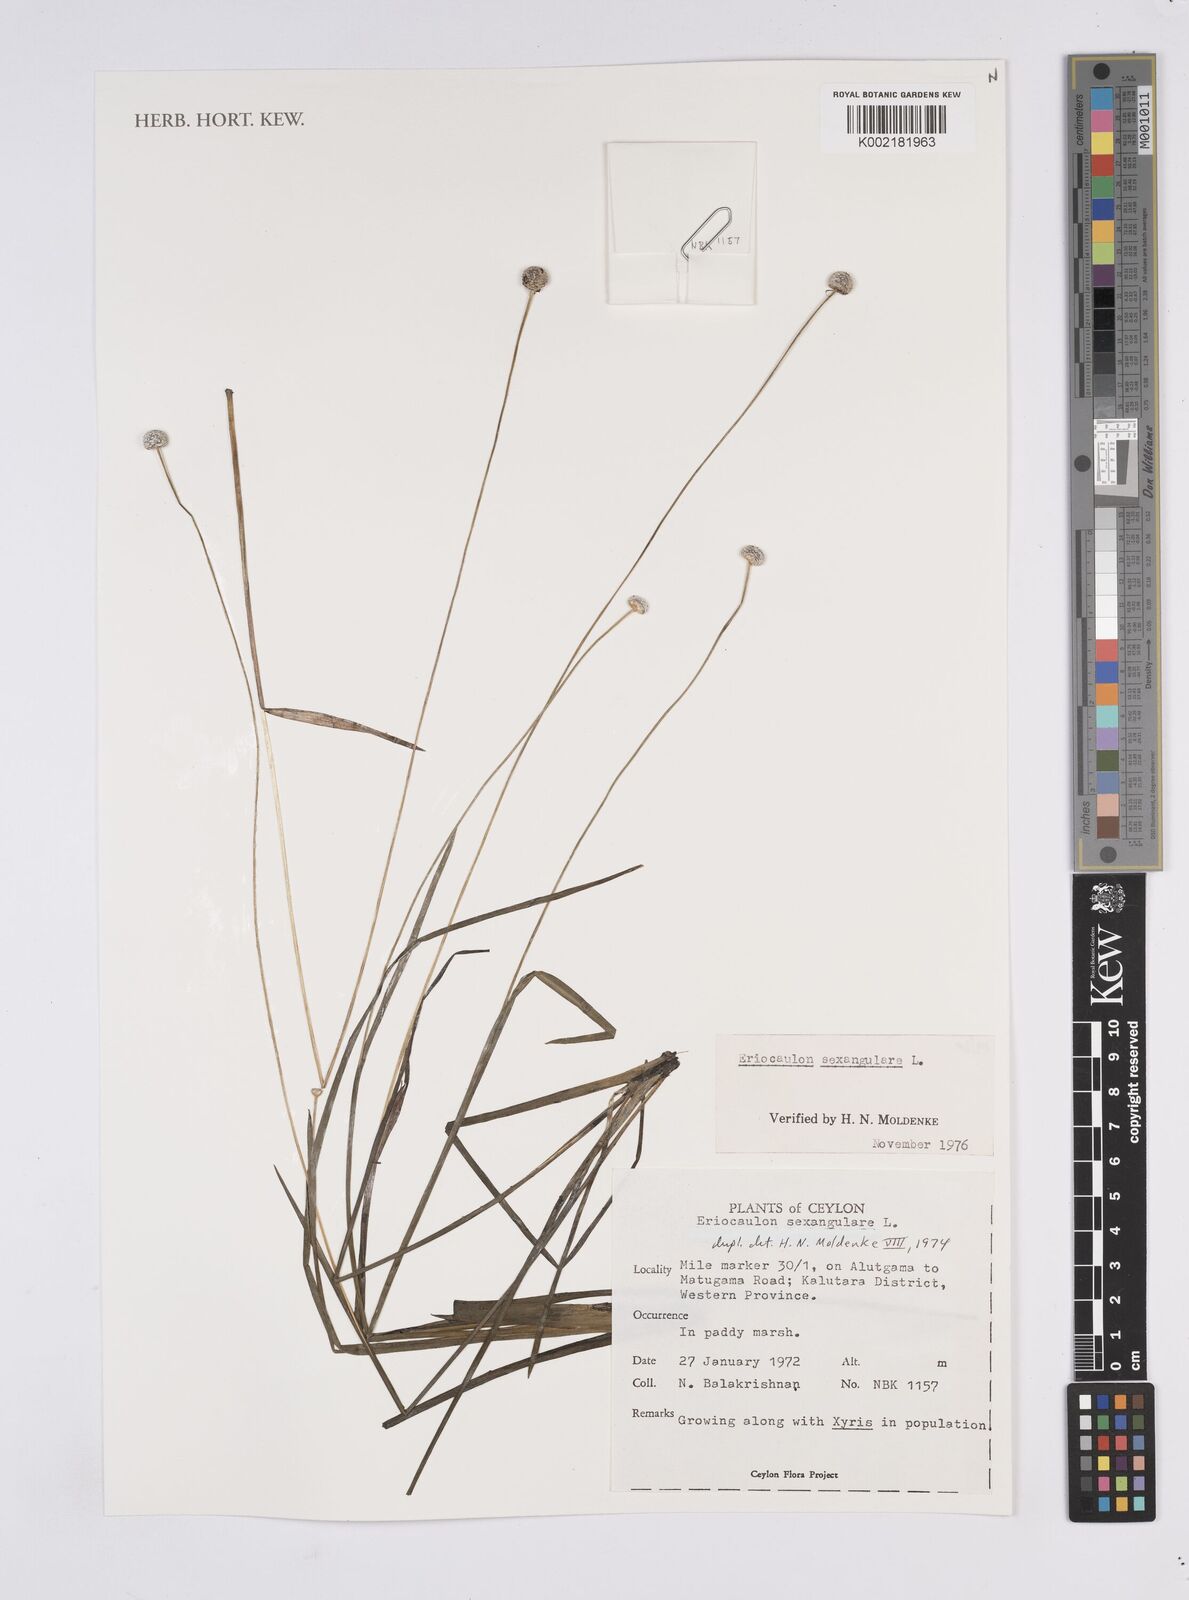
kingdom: Plantae
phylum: Tracheophyta
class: Liliopsida
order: Poales
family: Eriocaulaceae
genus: Eriocaulon
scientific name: Eriocaulon sexangulare
